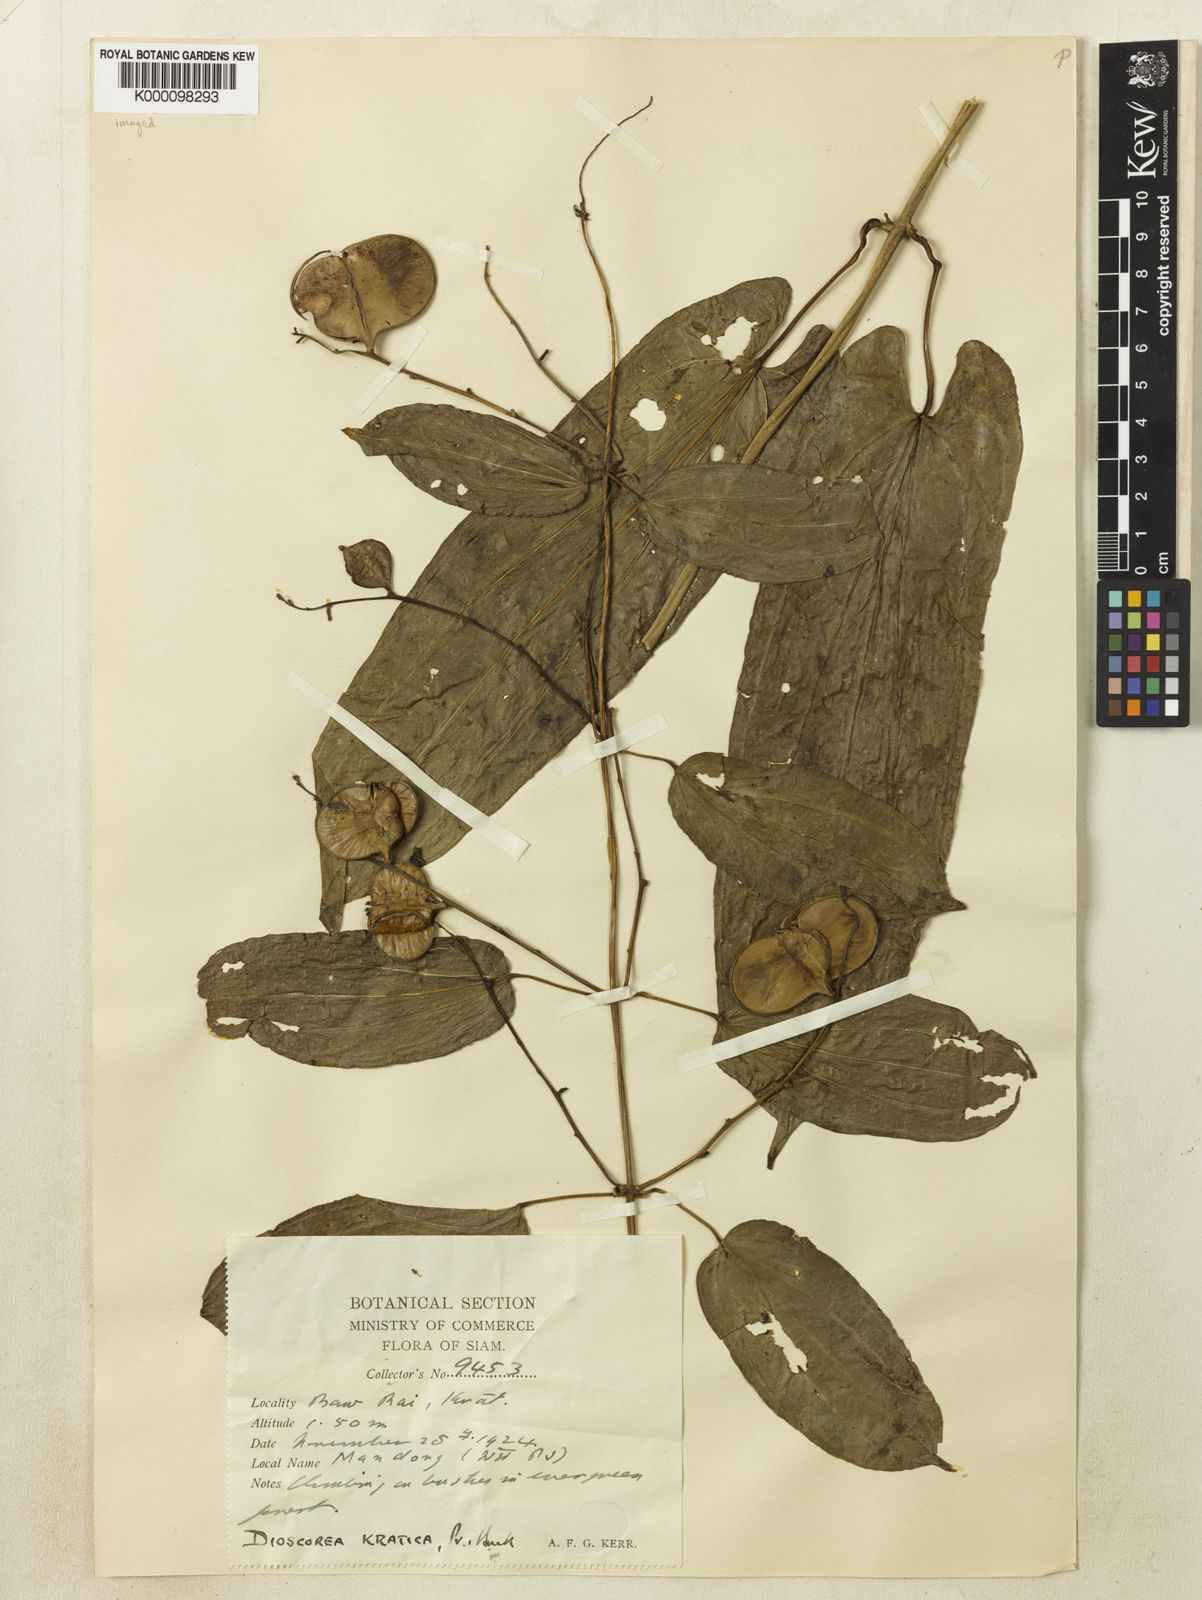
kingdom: Plantae
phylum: Tracheophyta
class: Liliopsida
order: Dioscoreales
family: Dioscoreaceae
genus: Dioscorea
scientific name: Dioscorea kratica
